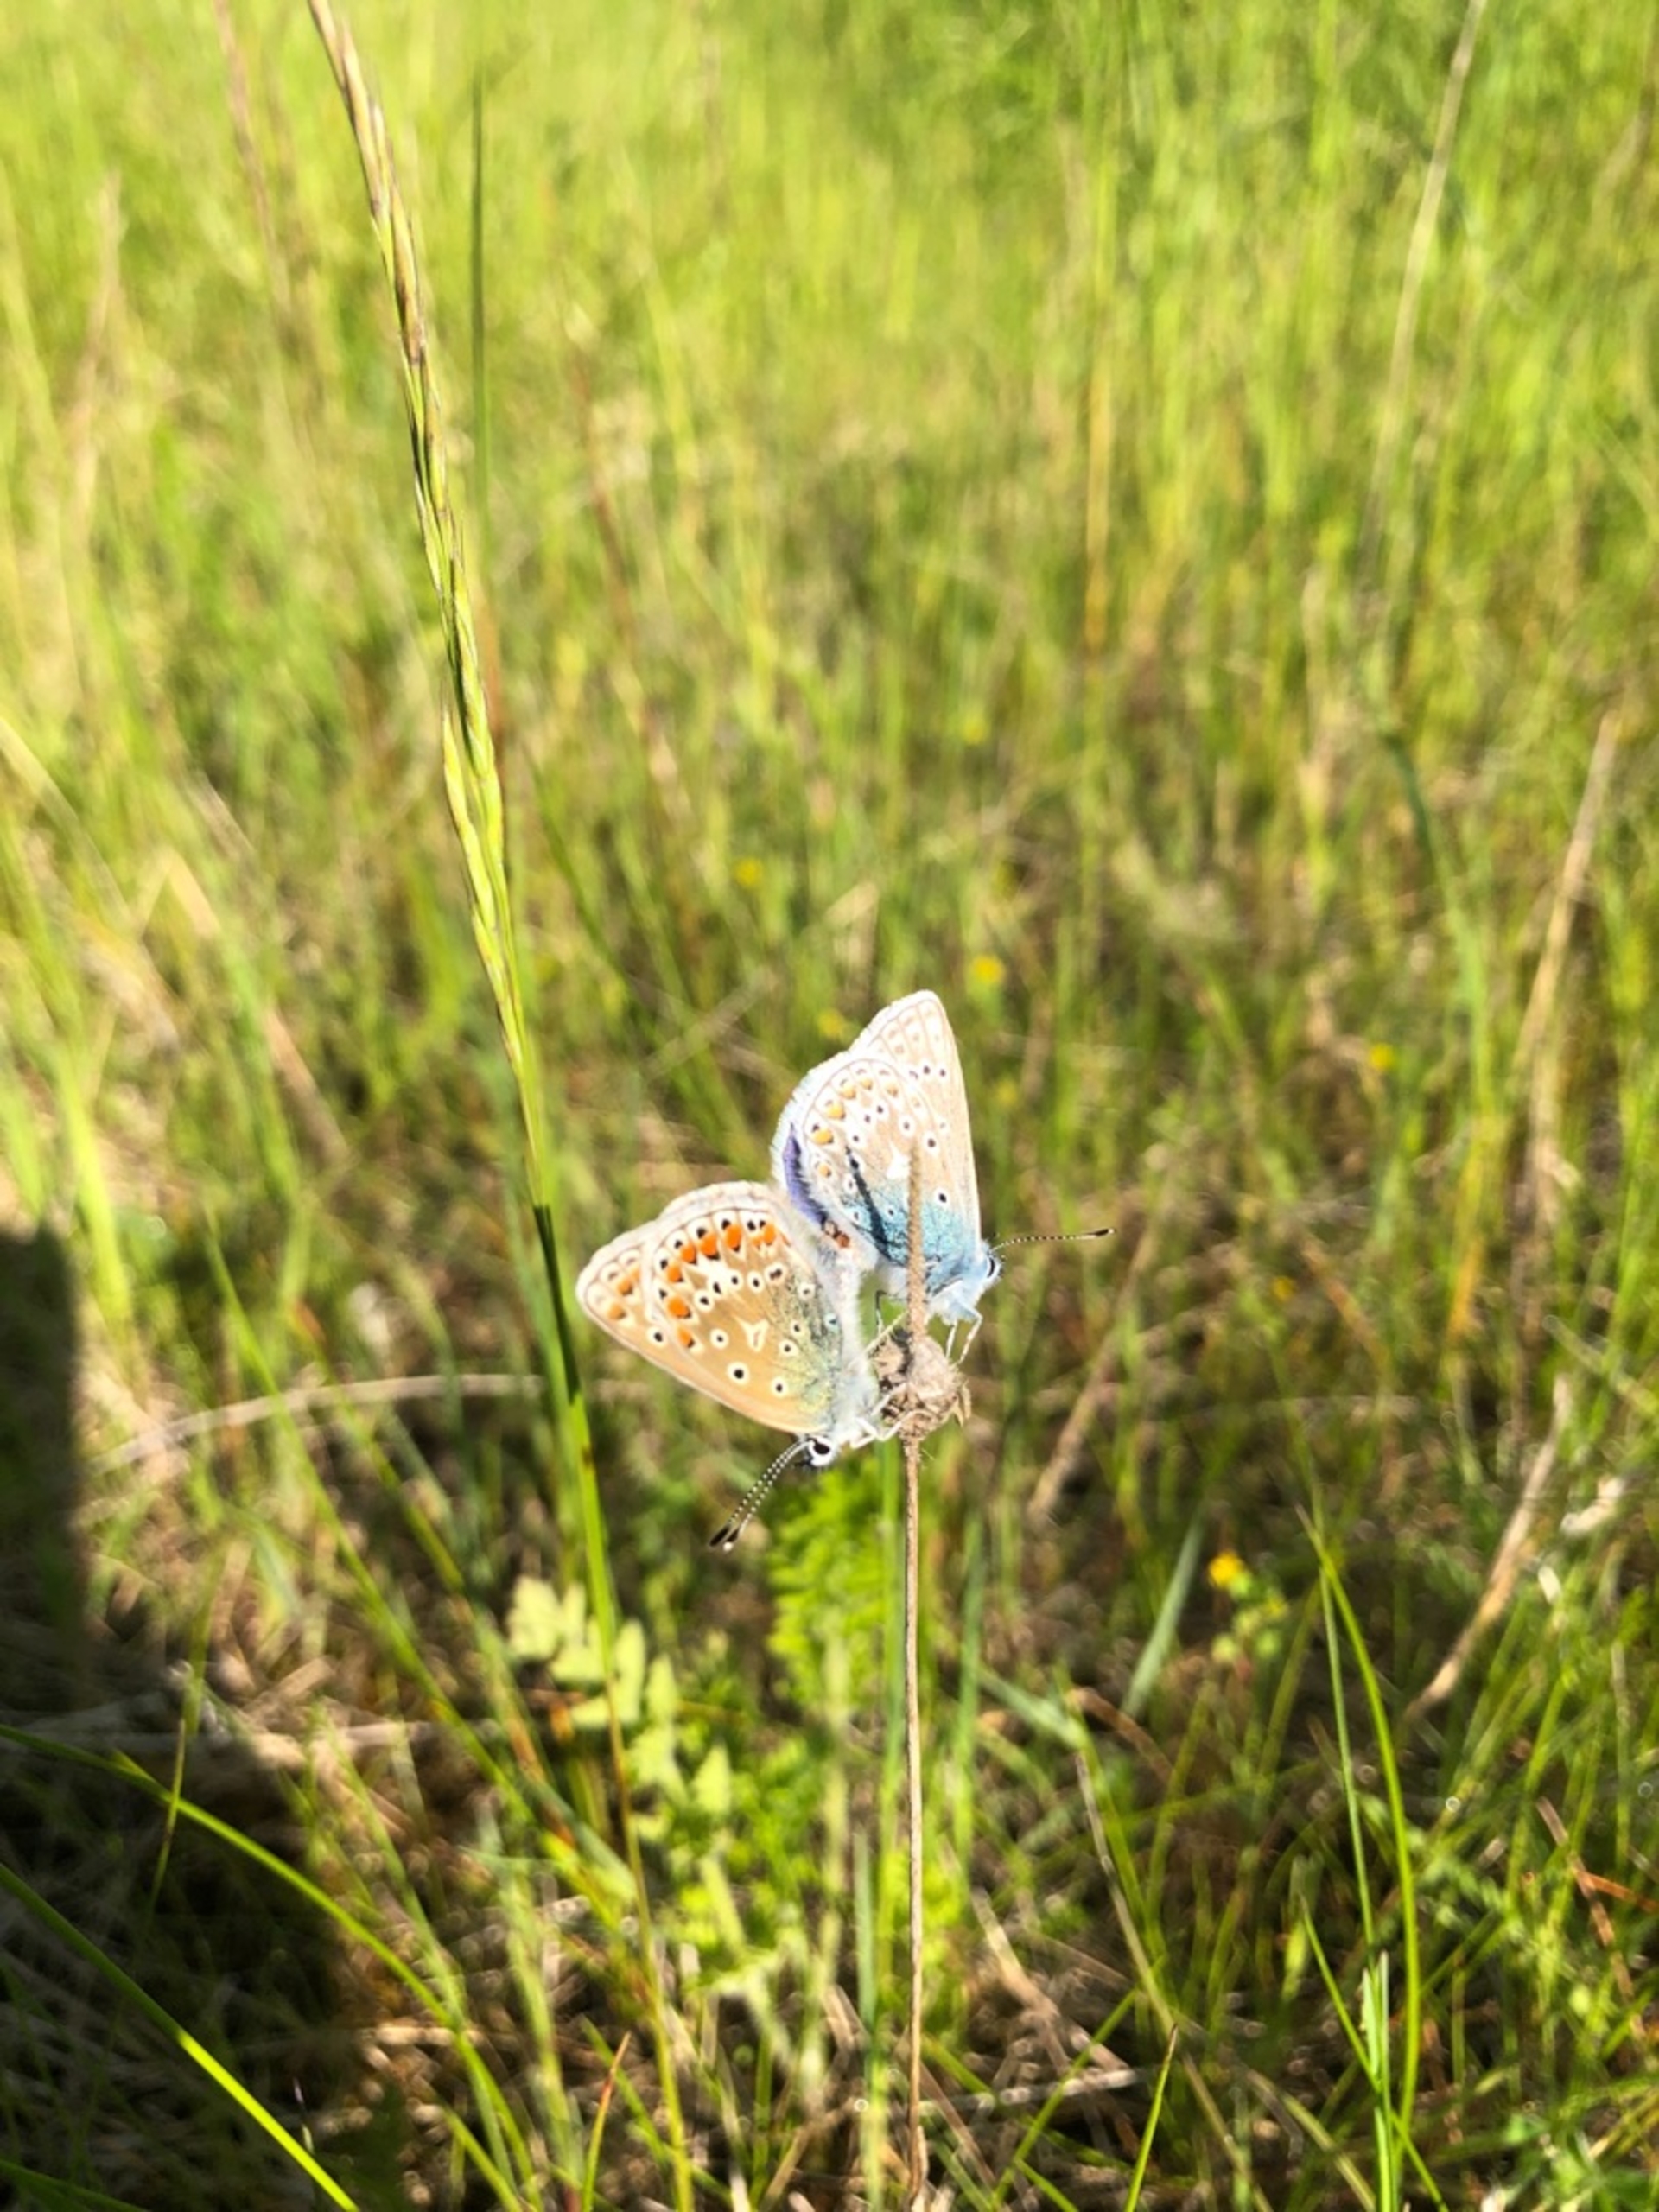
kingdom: Animalia
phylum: Arthropoda
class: Insecta
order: Lepidoptera
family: Lycaenidae
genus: Polyommatus
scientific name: Polyommatus icarus
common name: Almindelig blåfugl
